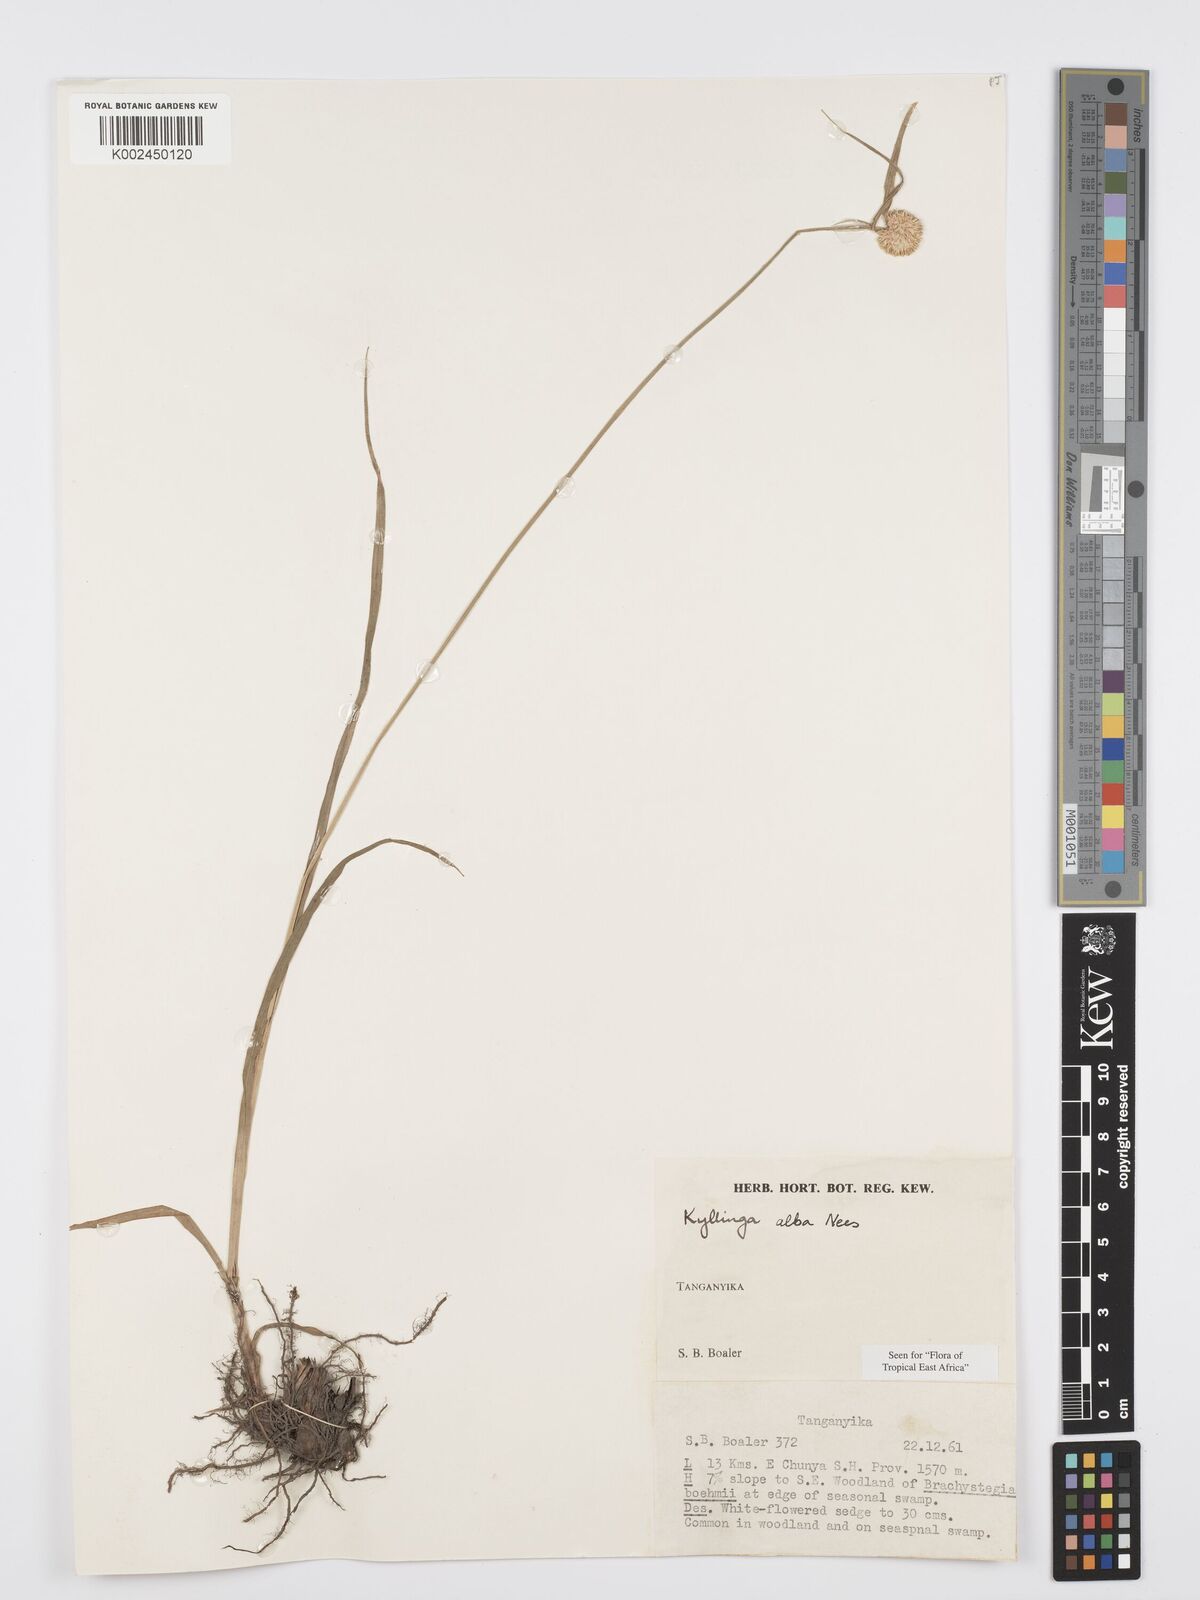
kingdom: Plantae
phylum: Tracheophyta
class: Liliopsida
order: Poales
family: Cyperaceae
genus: Cyperus
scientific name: Cyperus
